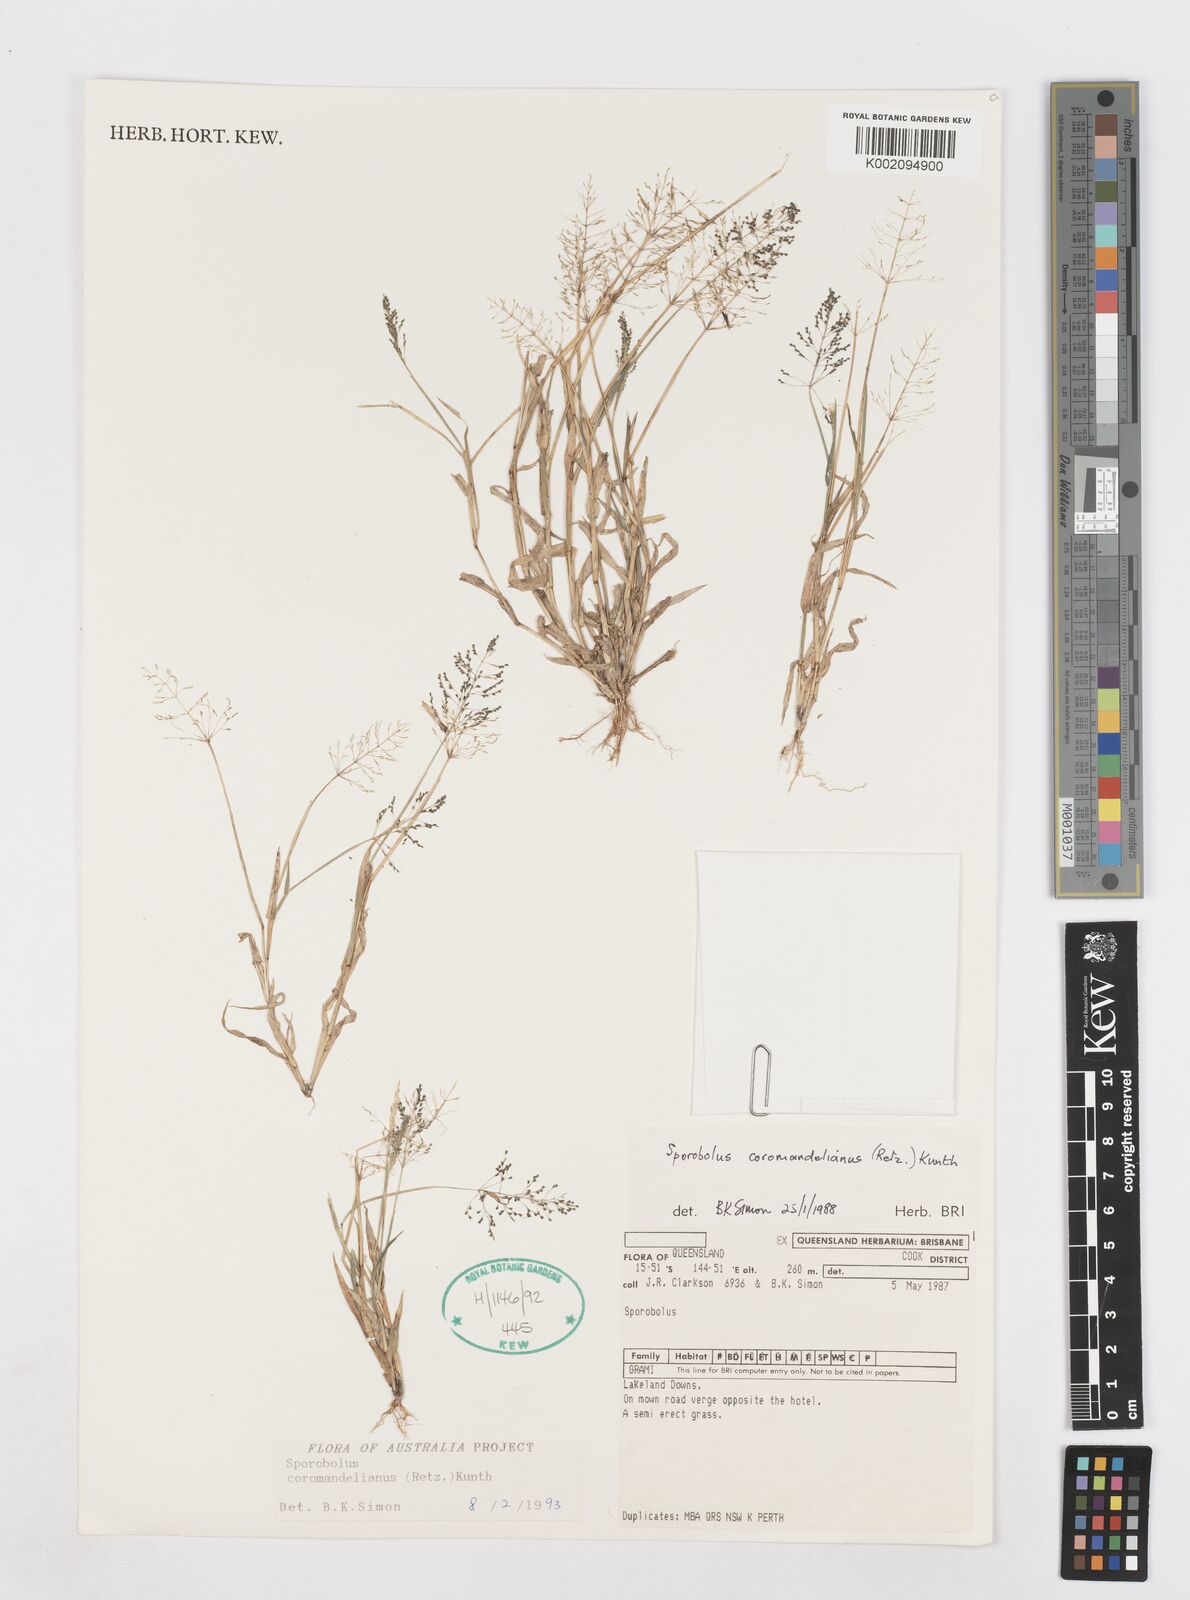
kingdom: Plantae
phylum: Tracheophyta
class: Liliopsida
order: Poales
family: Poaceae
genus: Sporobolus
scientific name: Sporobolus coromandelianus
